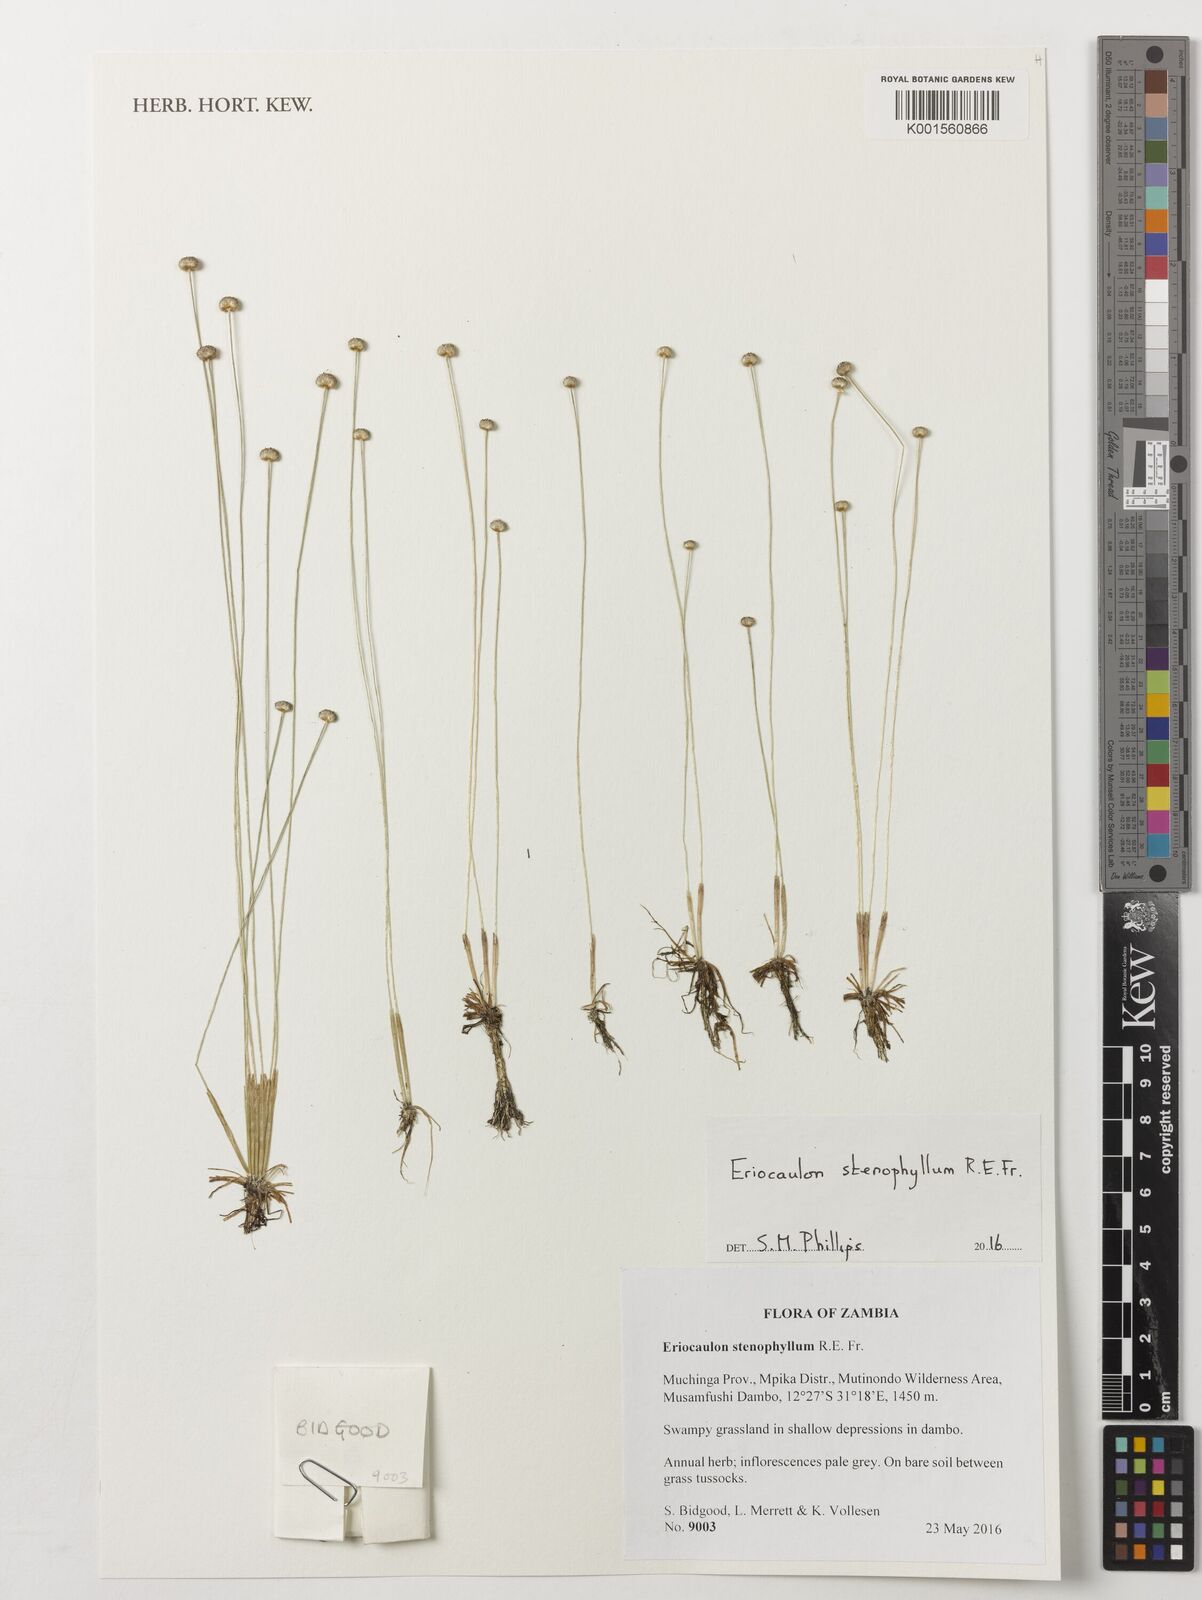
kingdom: Plantae
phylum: Tracheophyta
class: Liliopsida
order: Poales
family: Eriocaulaceae
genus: Eriocaulon
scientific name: Eriocaulon stenophyllum
